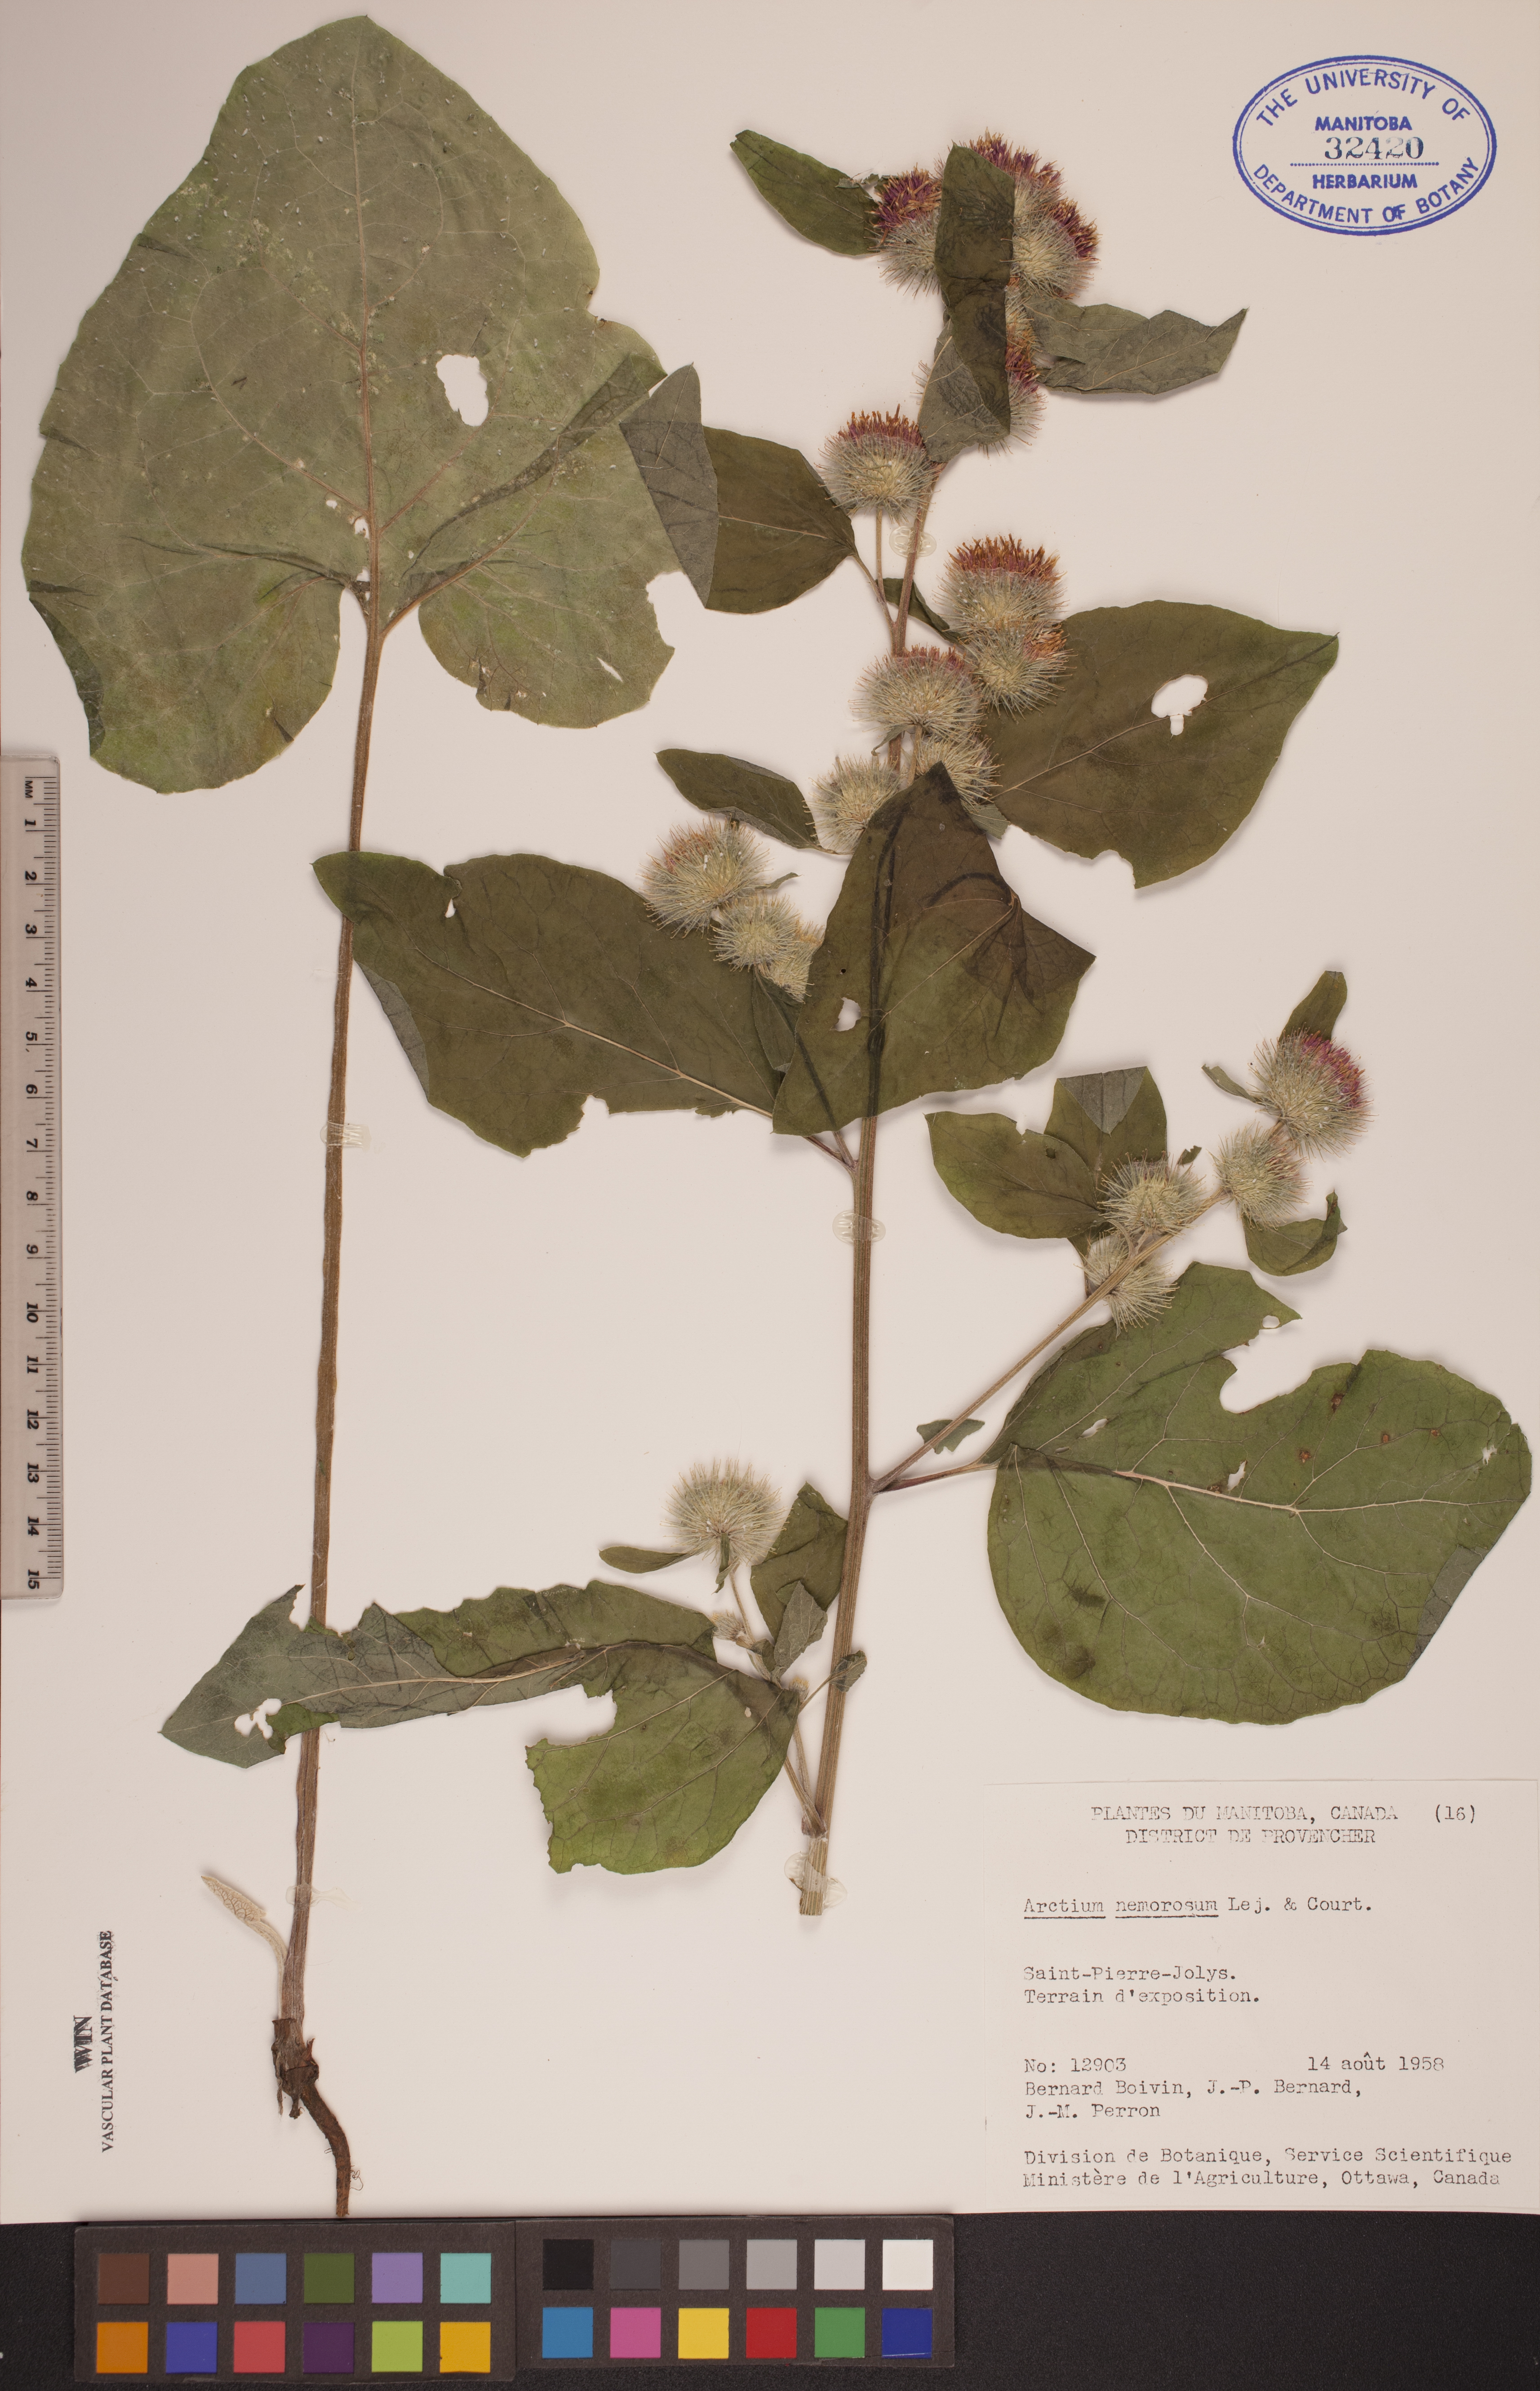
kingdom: Plantae
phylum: Tracheophyta
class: Magnoliopsida
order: Asterales
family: Asteraceae
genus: Arctium
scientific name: Arctium nemorosum
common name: Wood burdock
